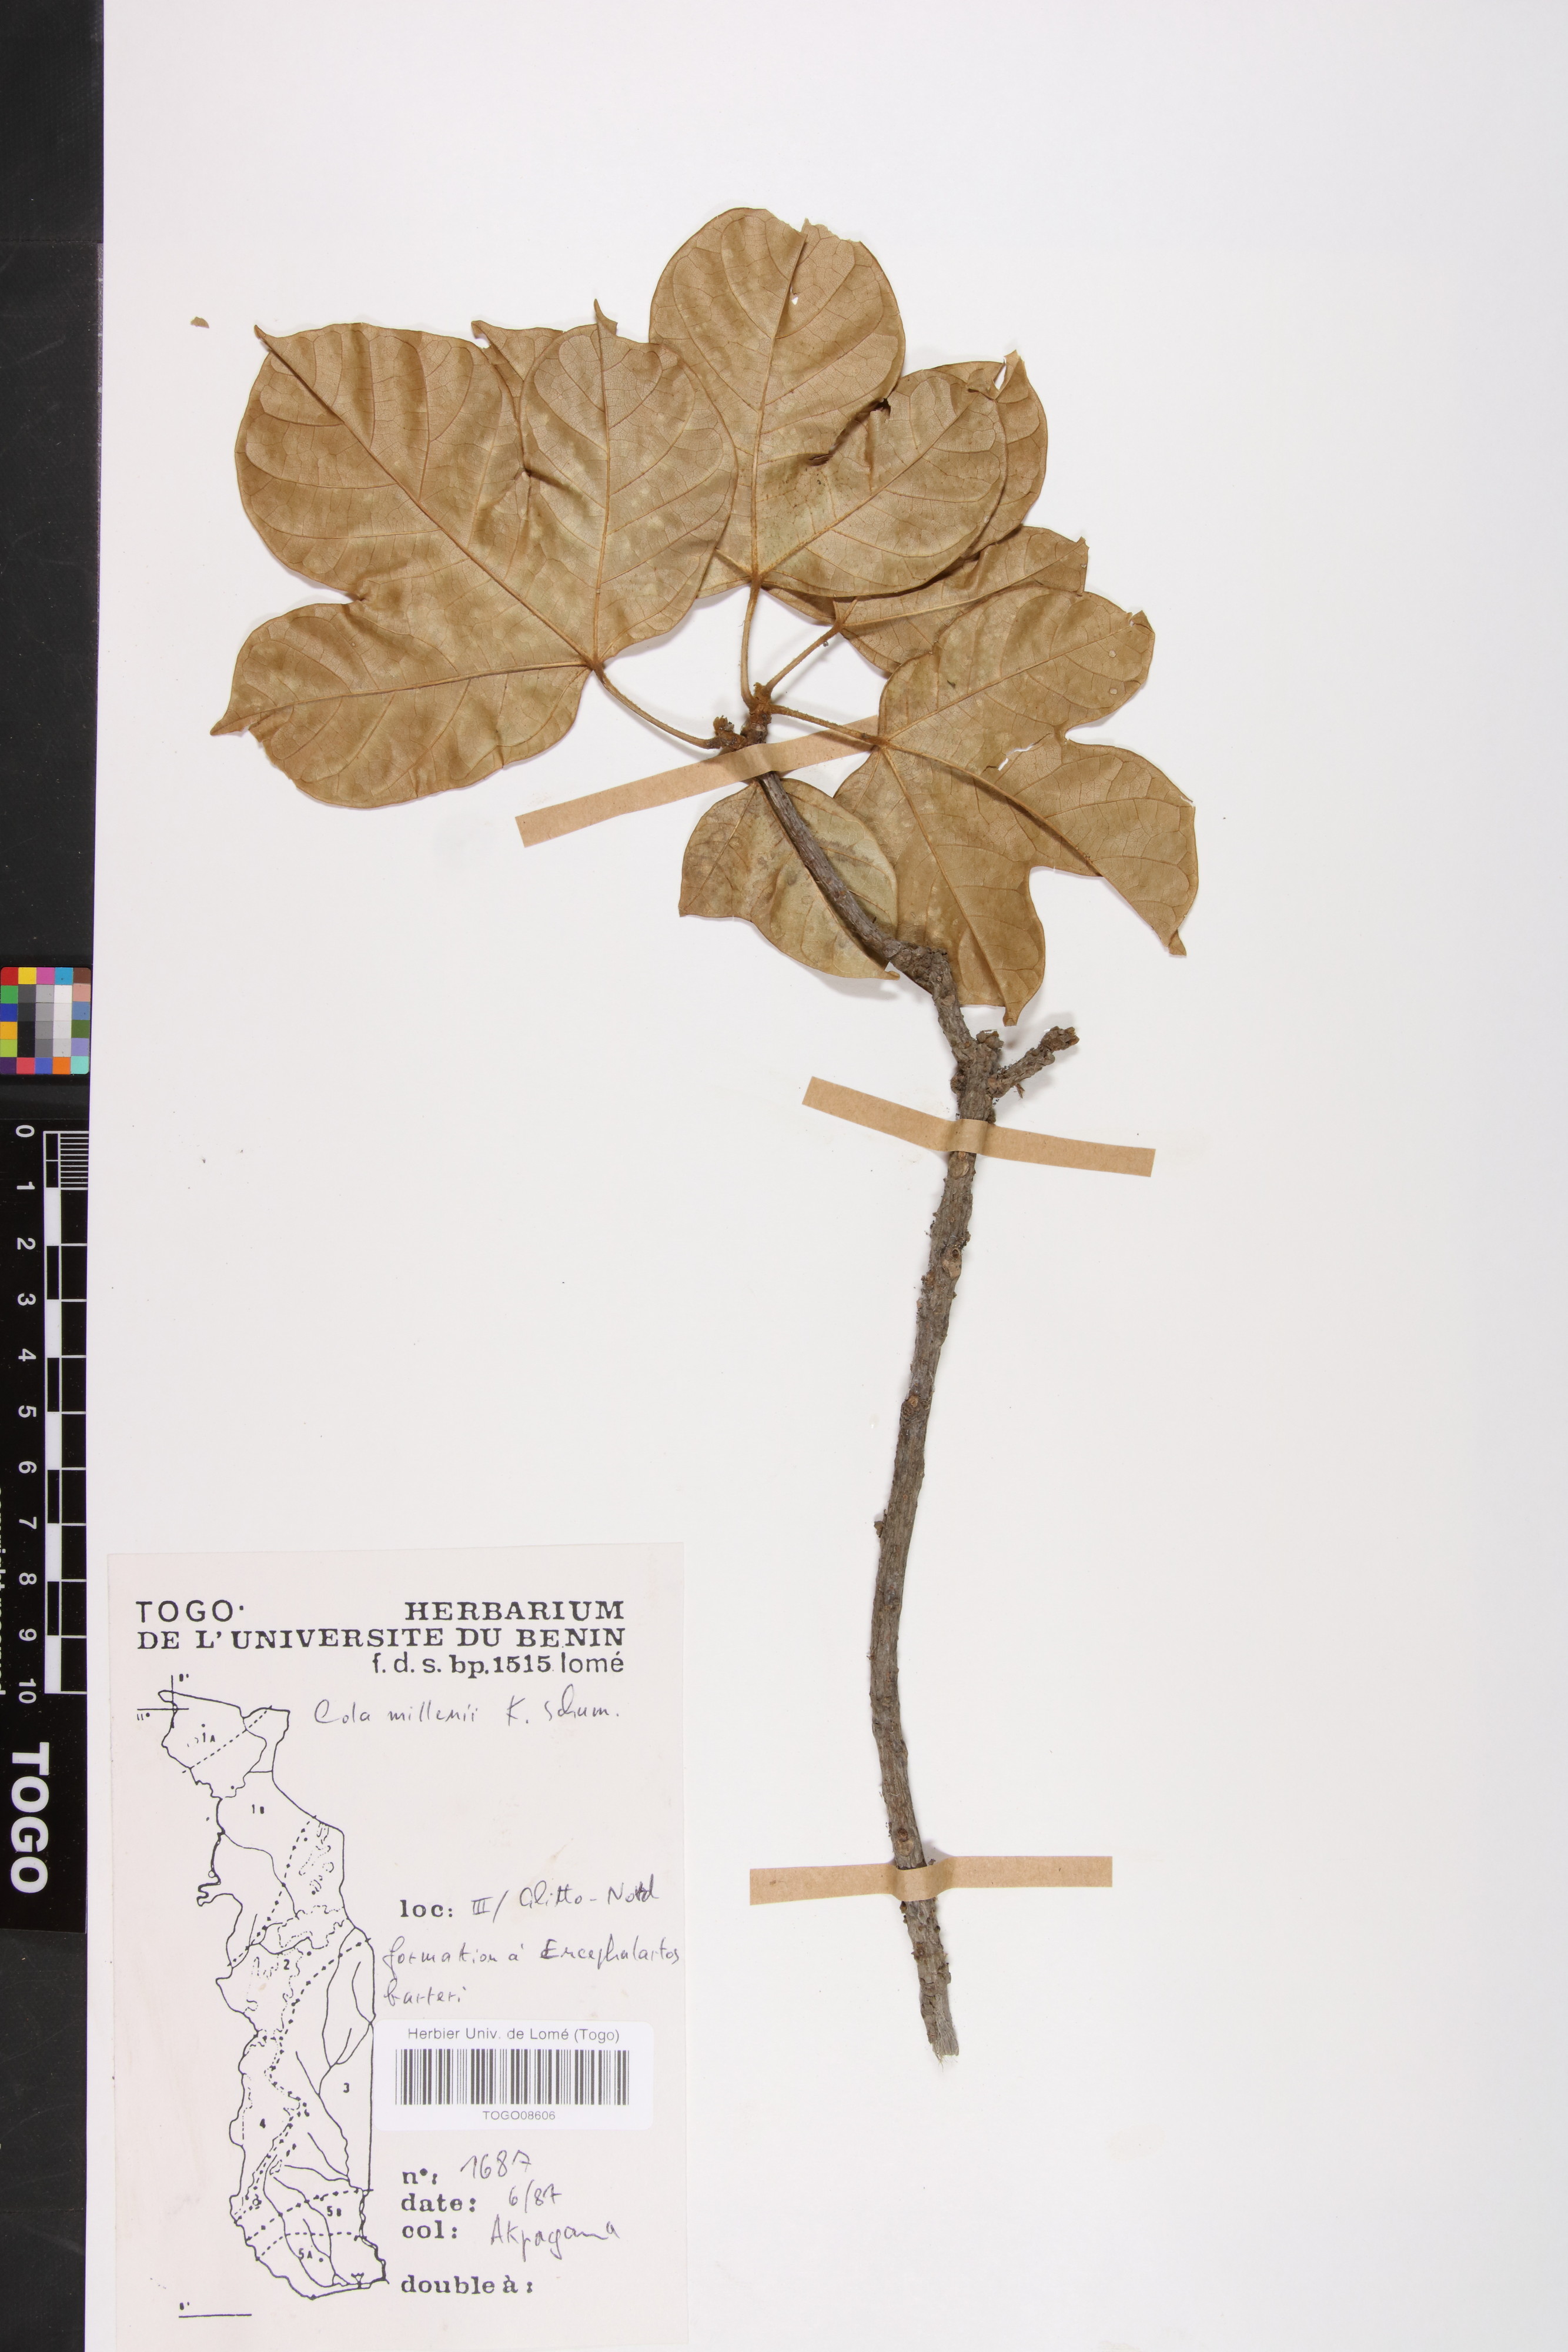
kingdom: Plantae
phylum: Tracheophyta
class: Magnoliopsida
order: Malvales
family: Malvaceae
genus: Cola
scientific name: Cola millenii
